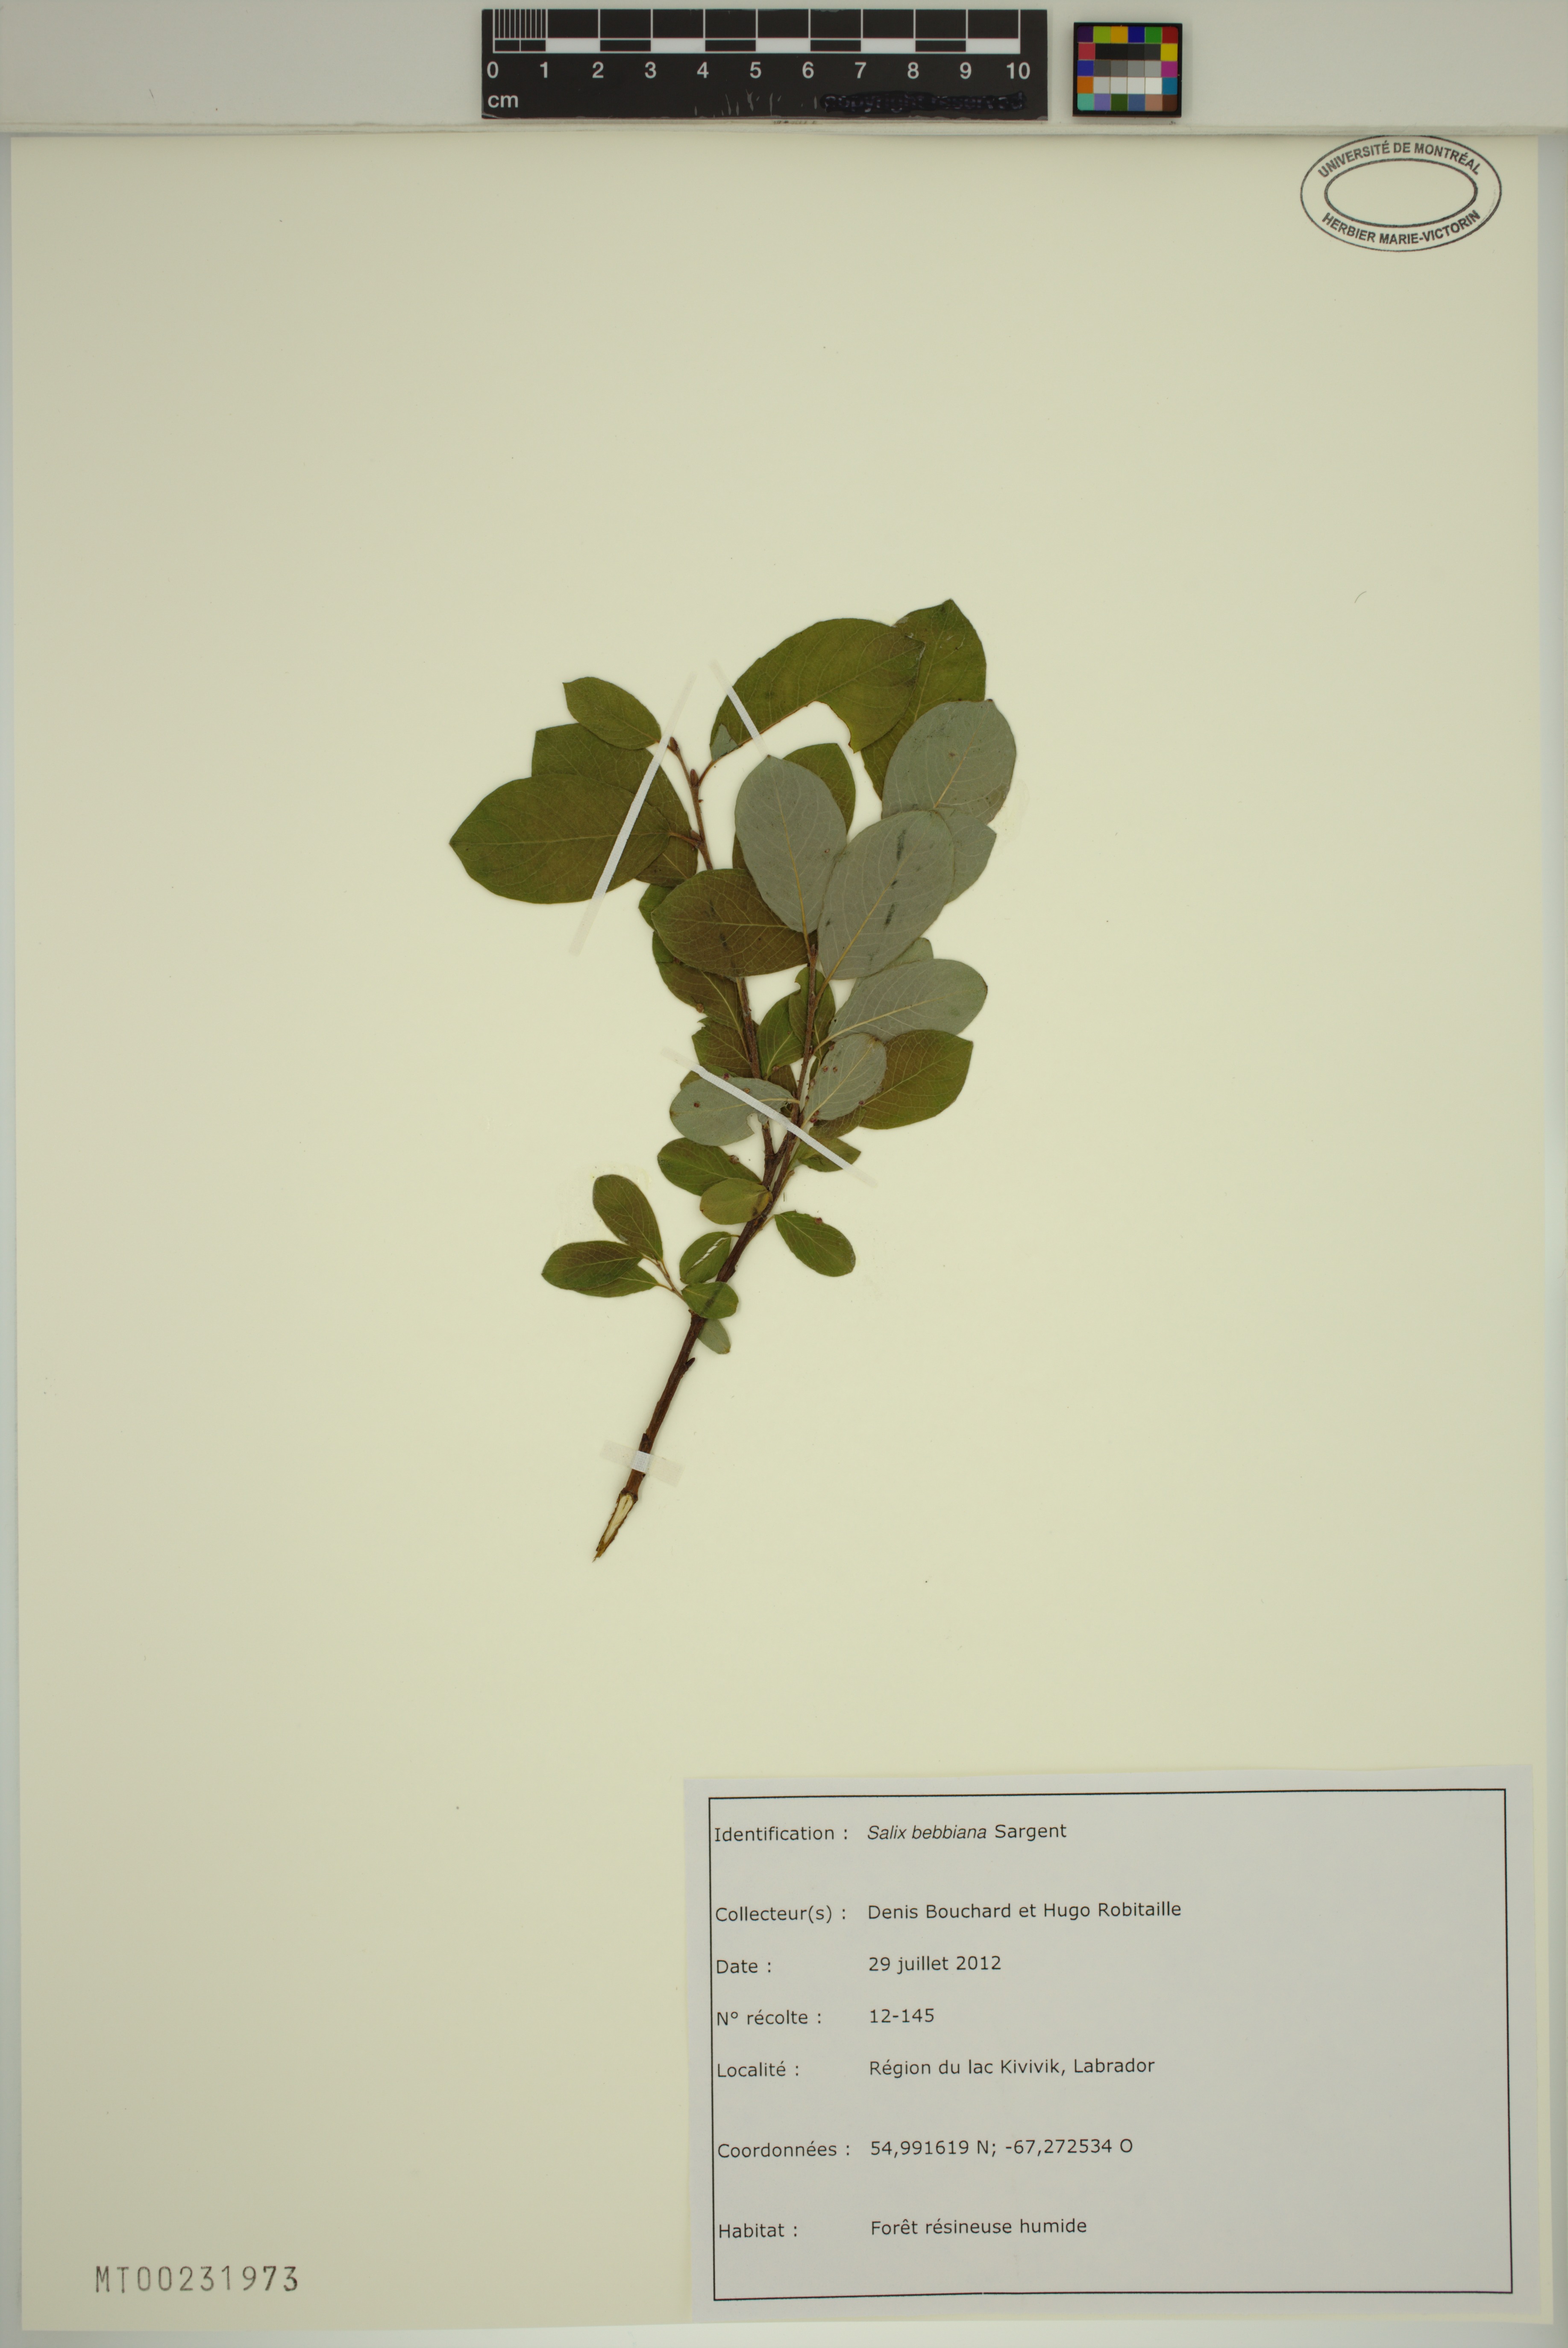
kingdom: Plantae
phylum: Tracheophyta
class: Magnoliopsida
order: Malpighiales
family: Salicaceae
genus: Salix
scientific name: Salix bebbiana
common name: Bebb's willow
